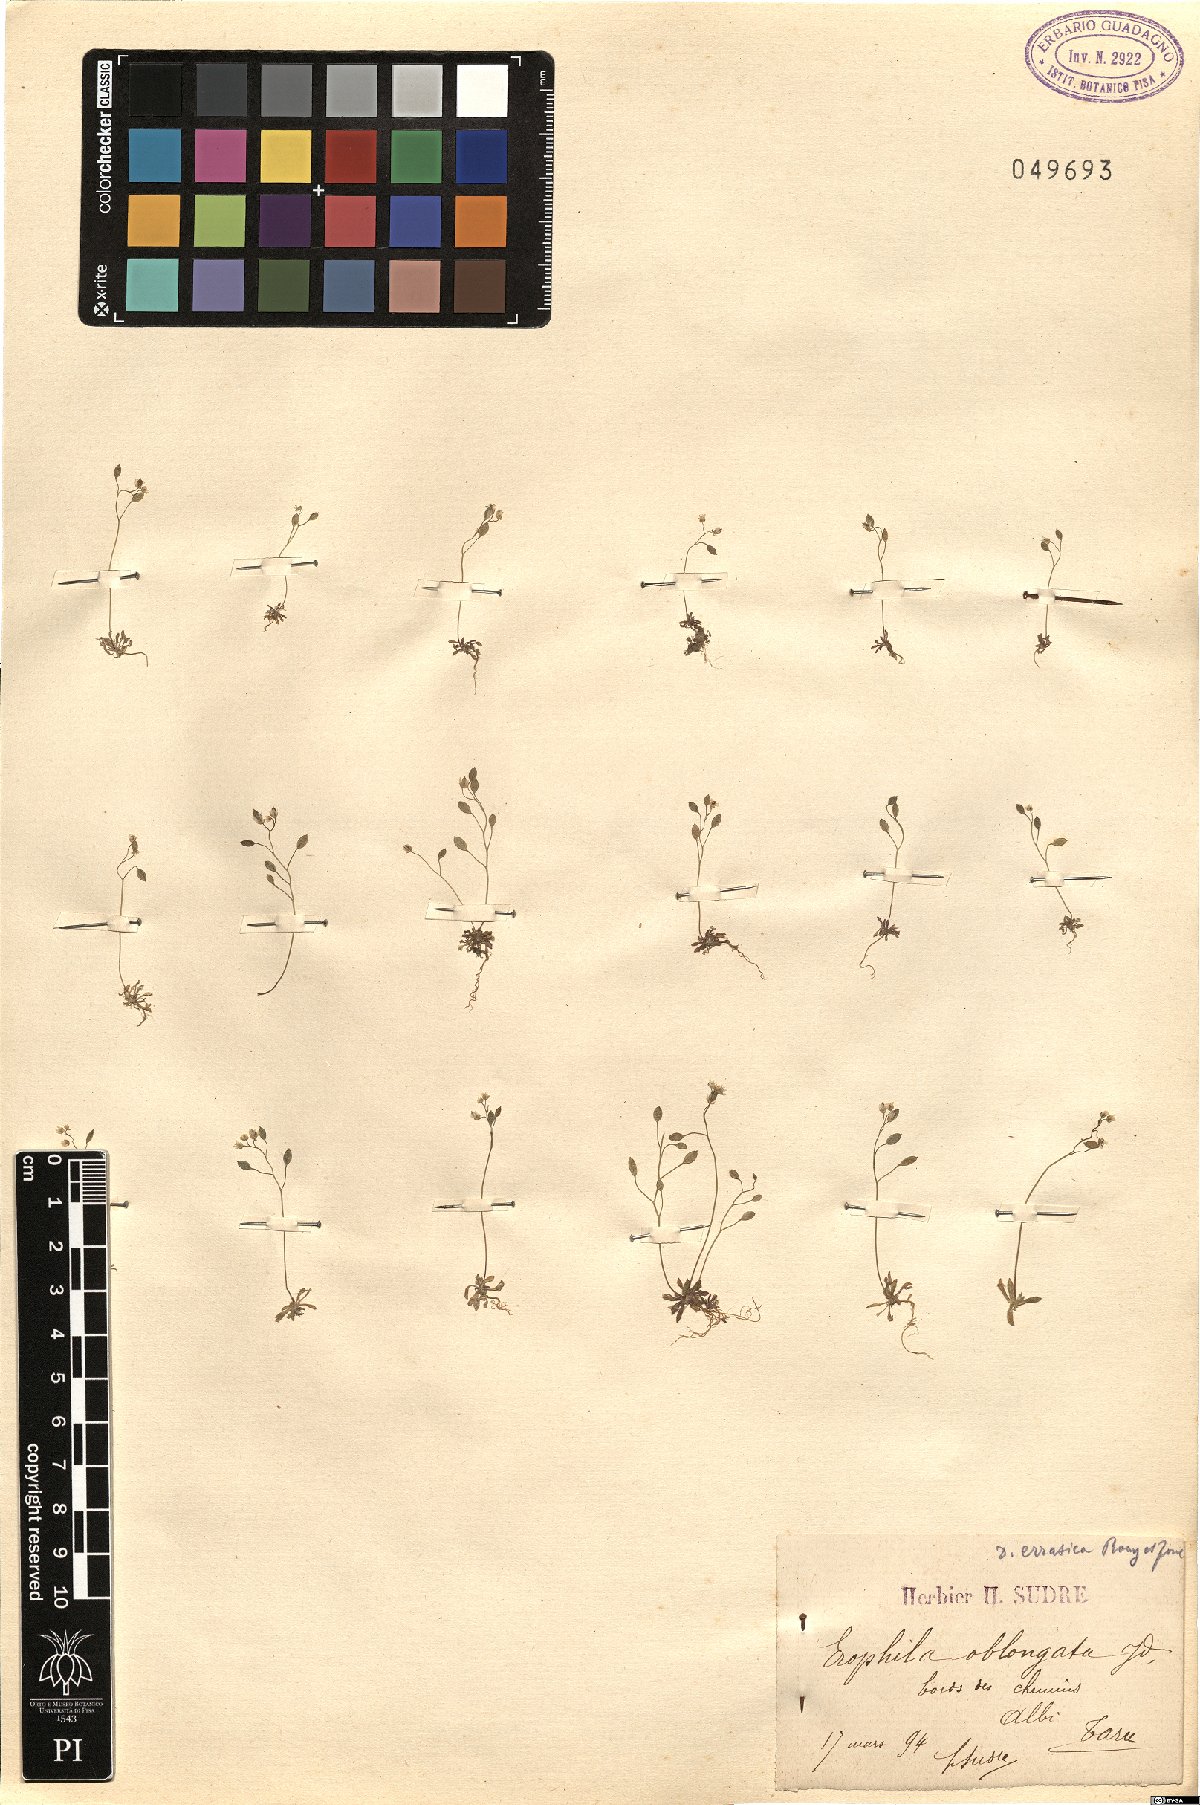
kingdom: Plantae
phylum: Tracheophyta
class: Magnoliopsida
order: Brassicales
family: Brassicaceae
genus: Draba
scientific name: Draba verna
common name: Spring draba
